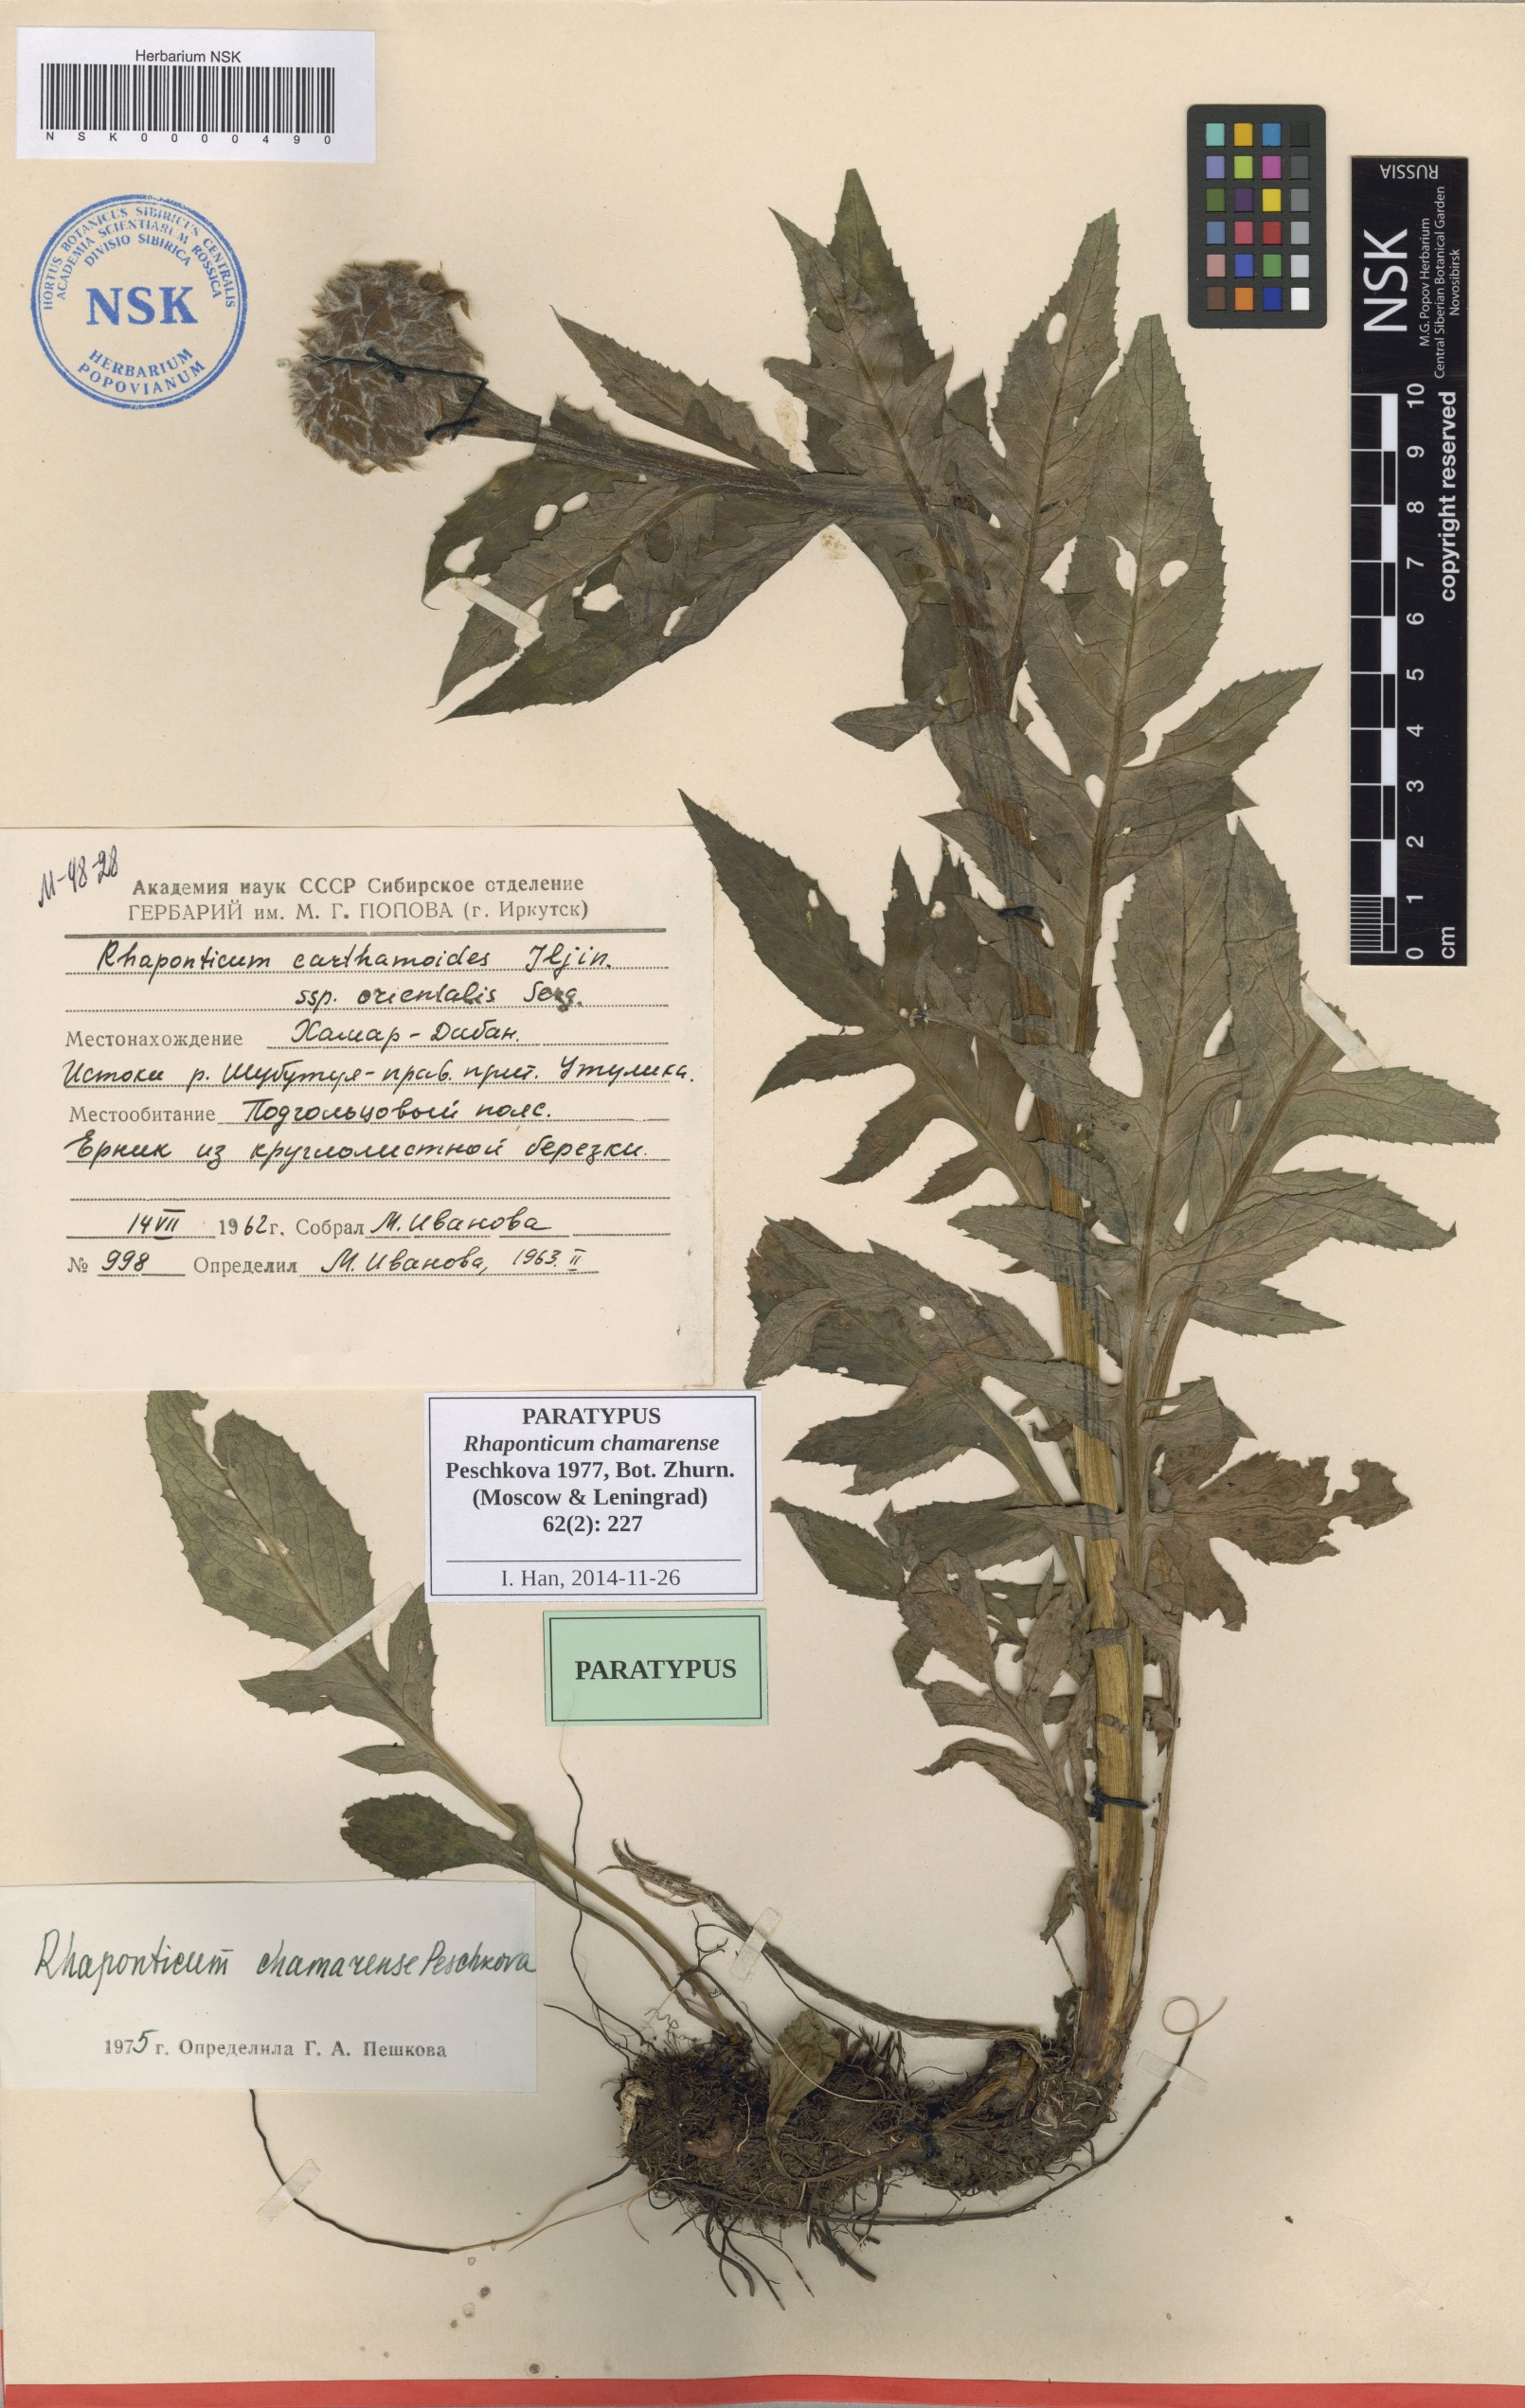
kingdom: Plantae
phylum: Tracheophyta
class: Magnoliopsida
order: Asterales
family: Asteraceae
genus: Leuzea
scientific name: Leuzea carthamoides
